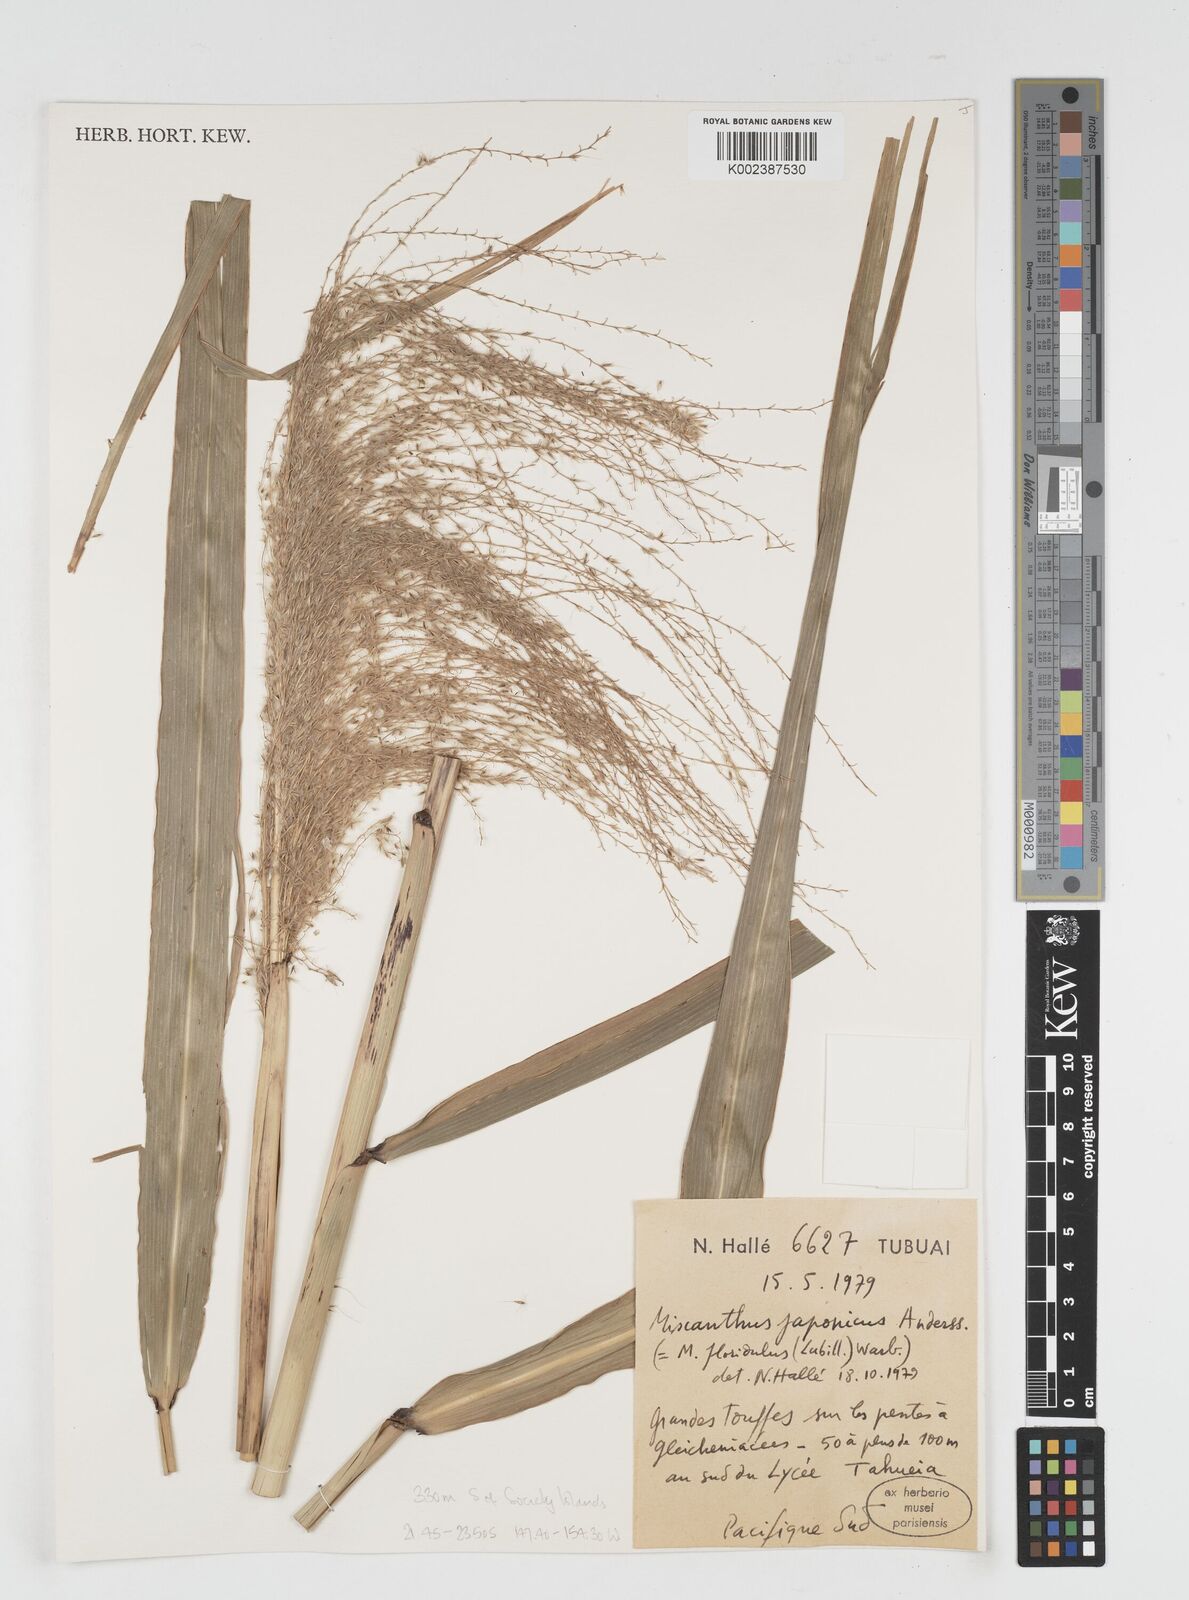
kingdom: Plantae
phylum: Tracheophyta
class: Liliopsida
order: Poales
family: Poaceae
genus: Miscanthus
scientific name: Miscanthus floridulus
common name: Pacific island silvergrass
